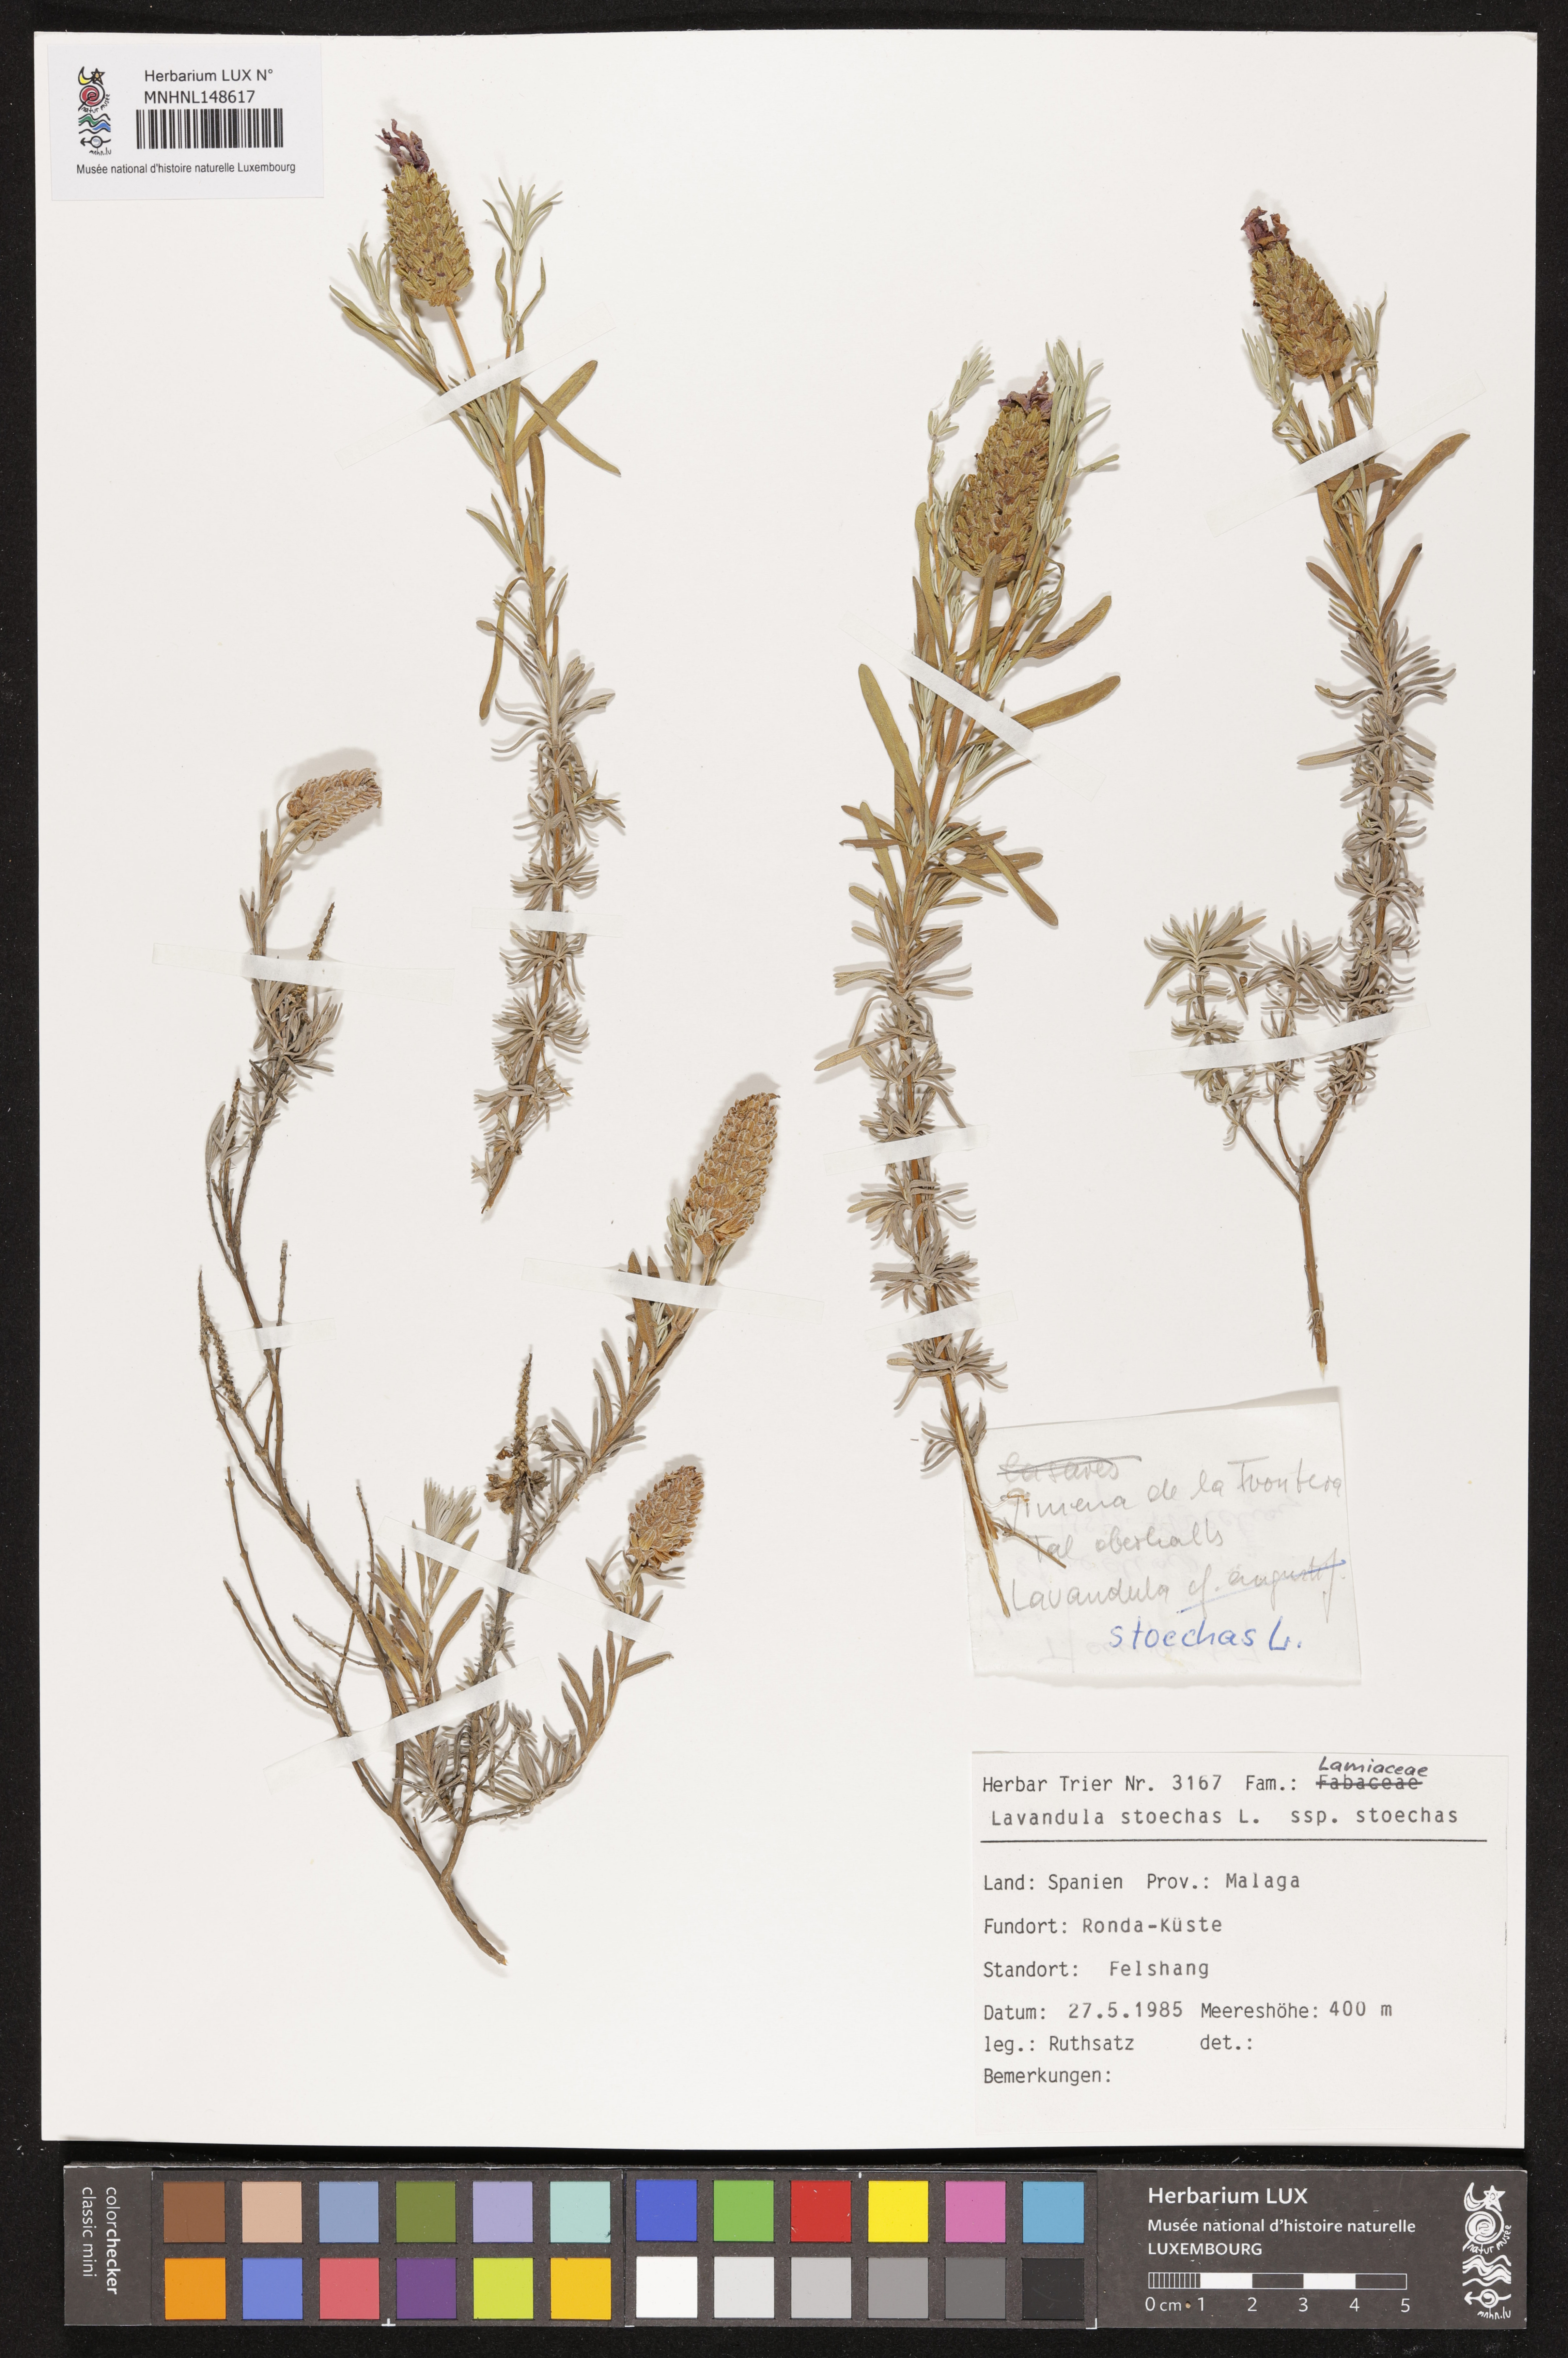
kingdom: Plantae
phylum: Tracheophyta
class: Magnoliopsida
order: Lamiales
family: Lamiaceae
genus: Lavandula
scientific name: Lavandula stoechas
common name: French lavender
